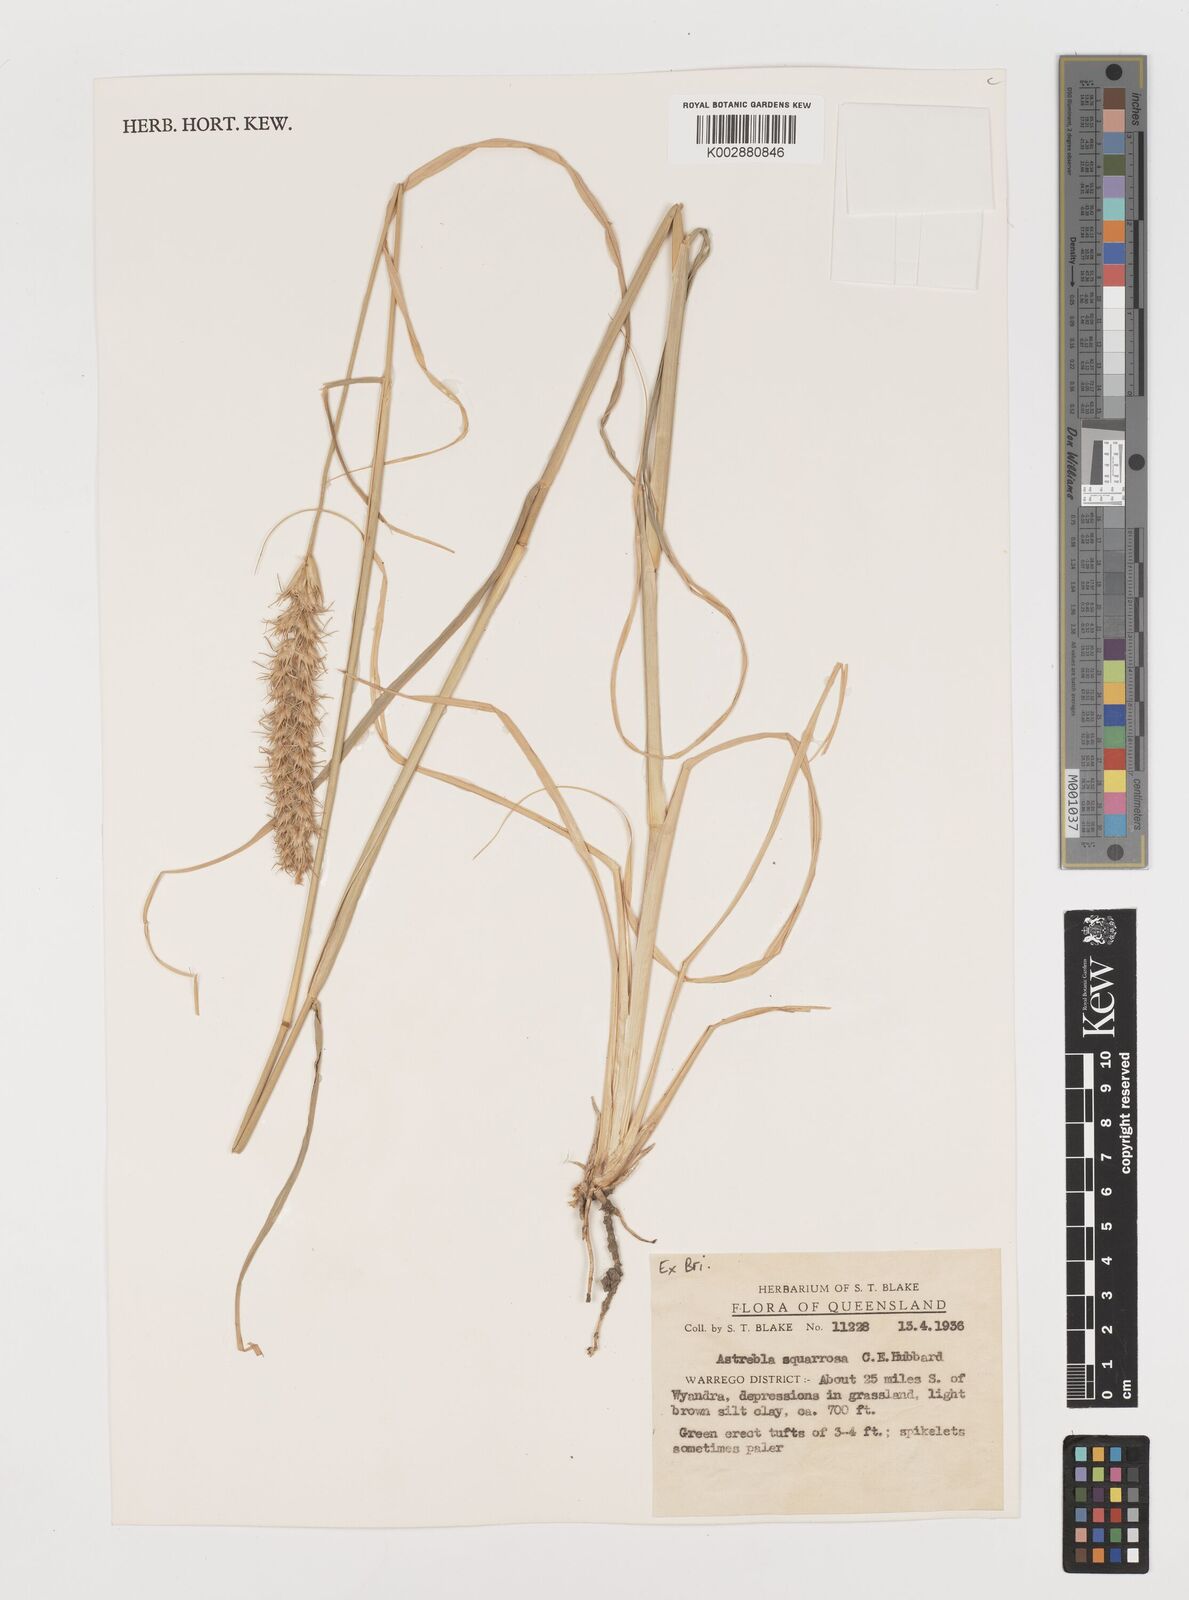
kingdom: Plantae
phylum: Tracheophyta
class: Liliopsida
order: Poales
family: Poaceae
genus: Astrebla
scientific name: Astrebla squarrosa
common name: Wheat-ear mitchell grass
